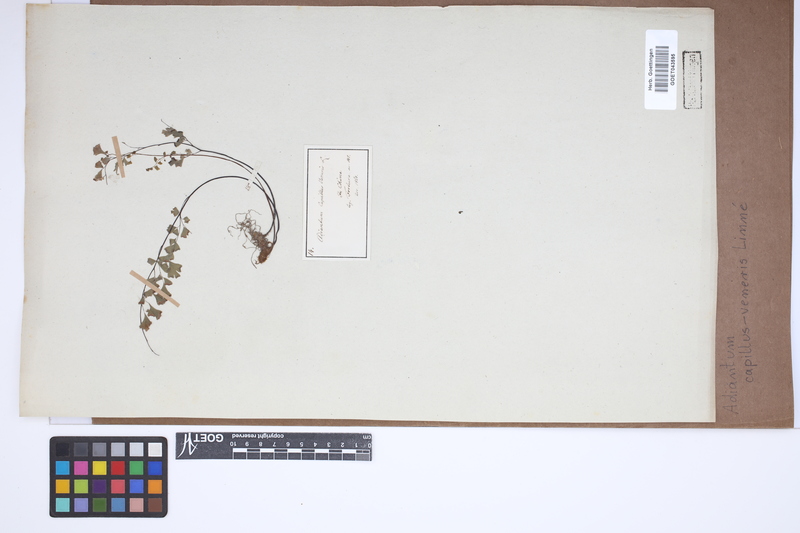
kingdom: Plantae
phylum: Tracheophyta
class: Polypodiopsida
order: Polypodiales
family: Pteridaceae
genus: Adiantum
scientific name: Adiantum capillus-veneris
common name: Maidenhair fern
